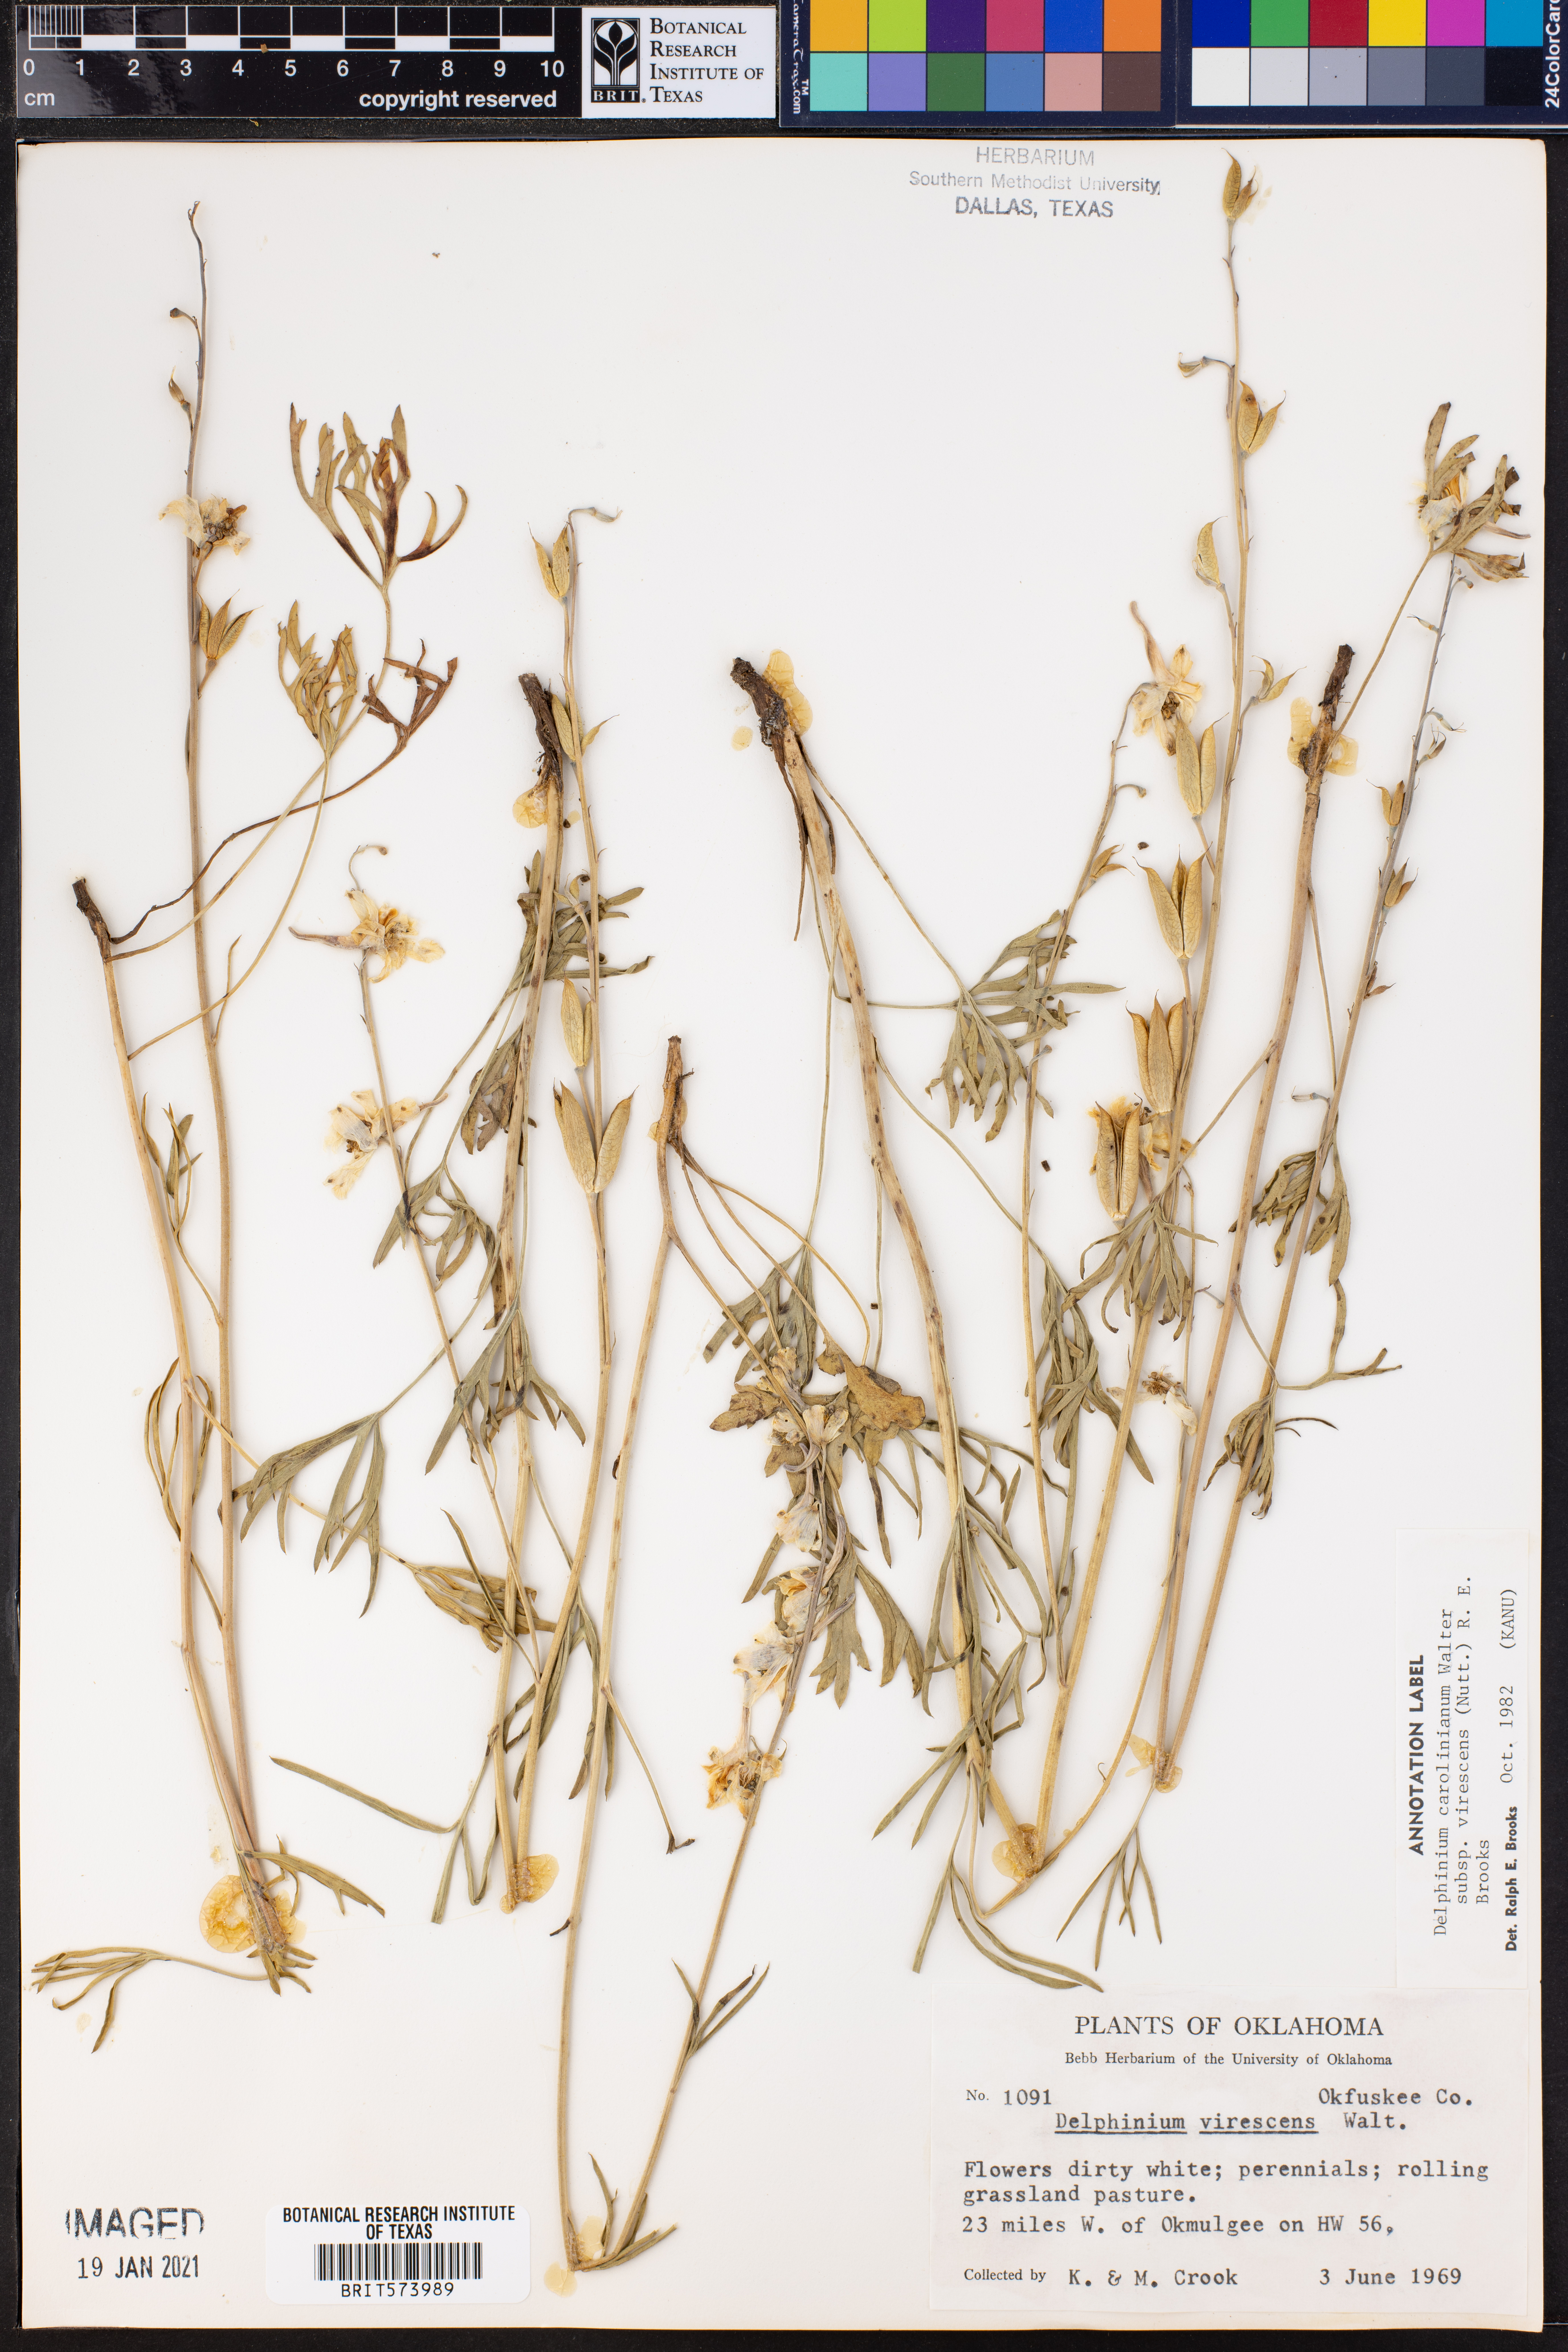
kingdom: Plantae
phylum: Tracheophyta
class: Magnoliopsida
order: Ranunculales
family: Ranunculaceae
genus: Delphinium
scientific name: Delphinium carolinianum
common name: Carolina larkspur
